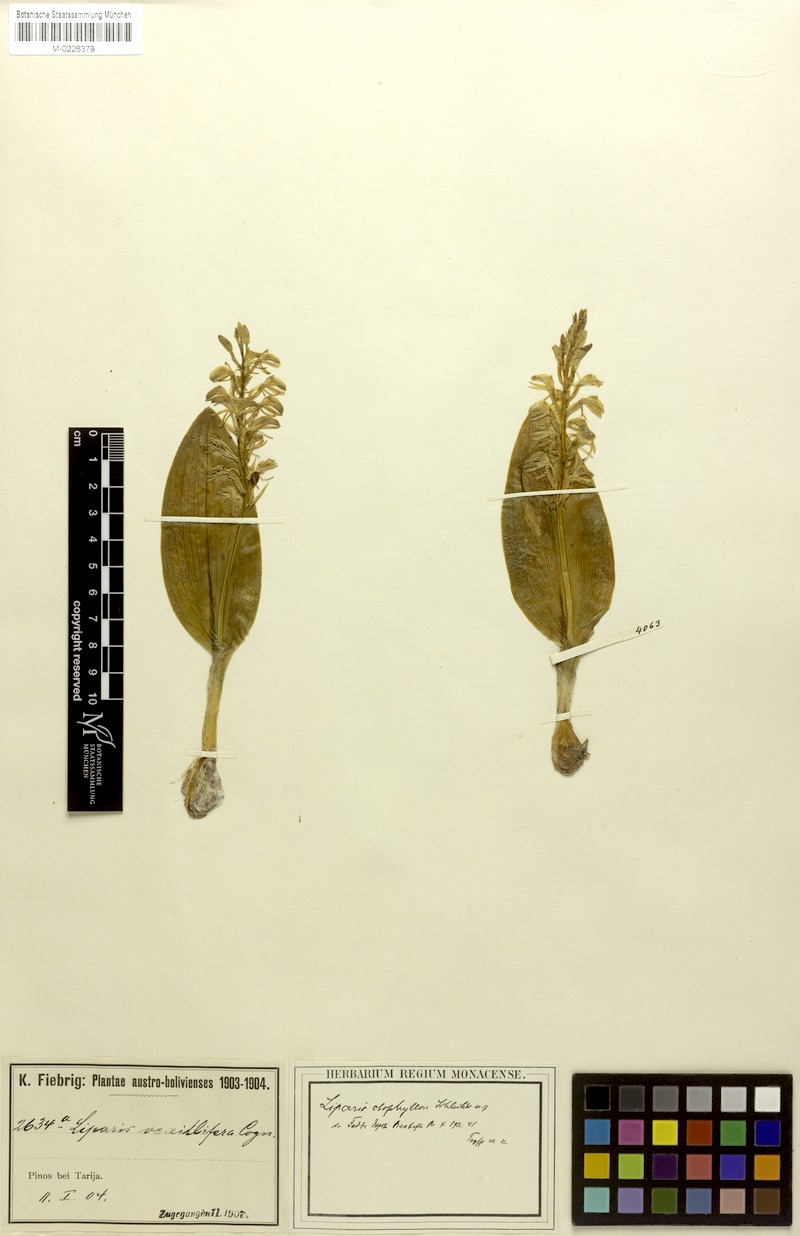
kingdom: Plantae
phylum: Tracheophyta
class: Liliopsida
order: Asparagales
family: Orchidaceae
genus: Liparis
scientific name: Liparis jamaicensis
